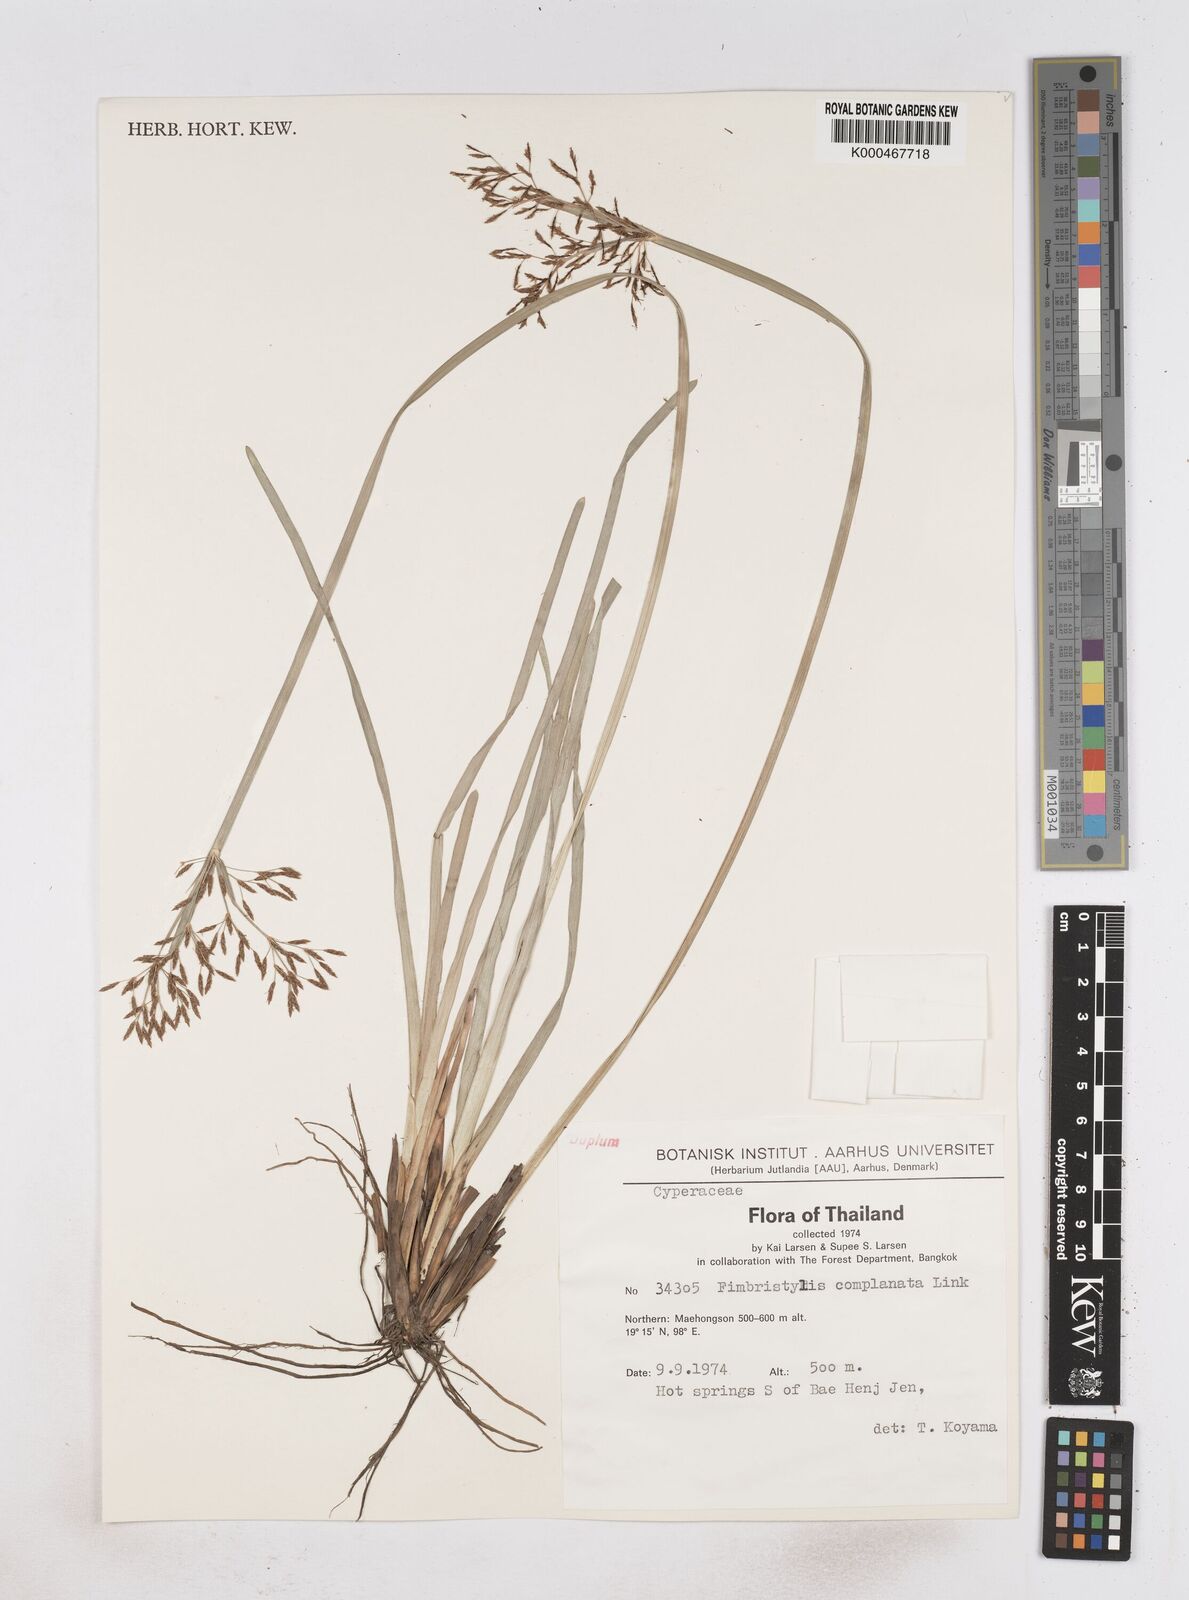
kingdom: Plantae
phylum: Tracheophyta
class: Liliopsida
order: Poales
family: Cyperaceae
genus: Fimbristylis
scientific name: Fimbristylis complanata
